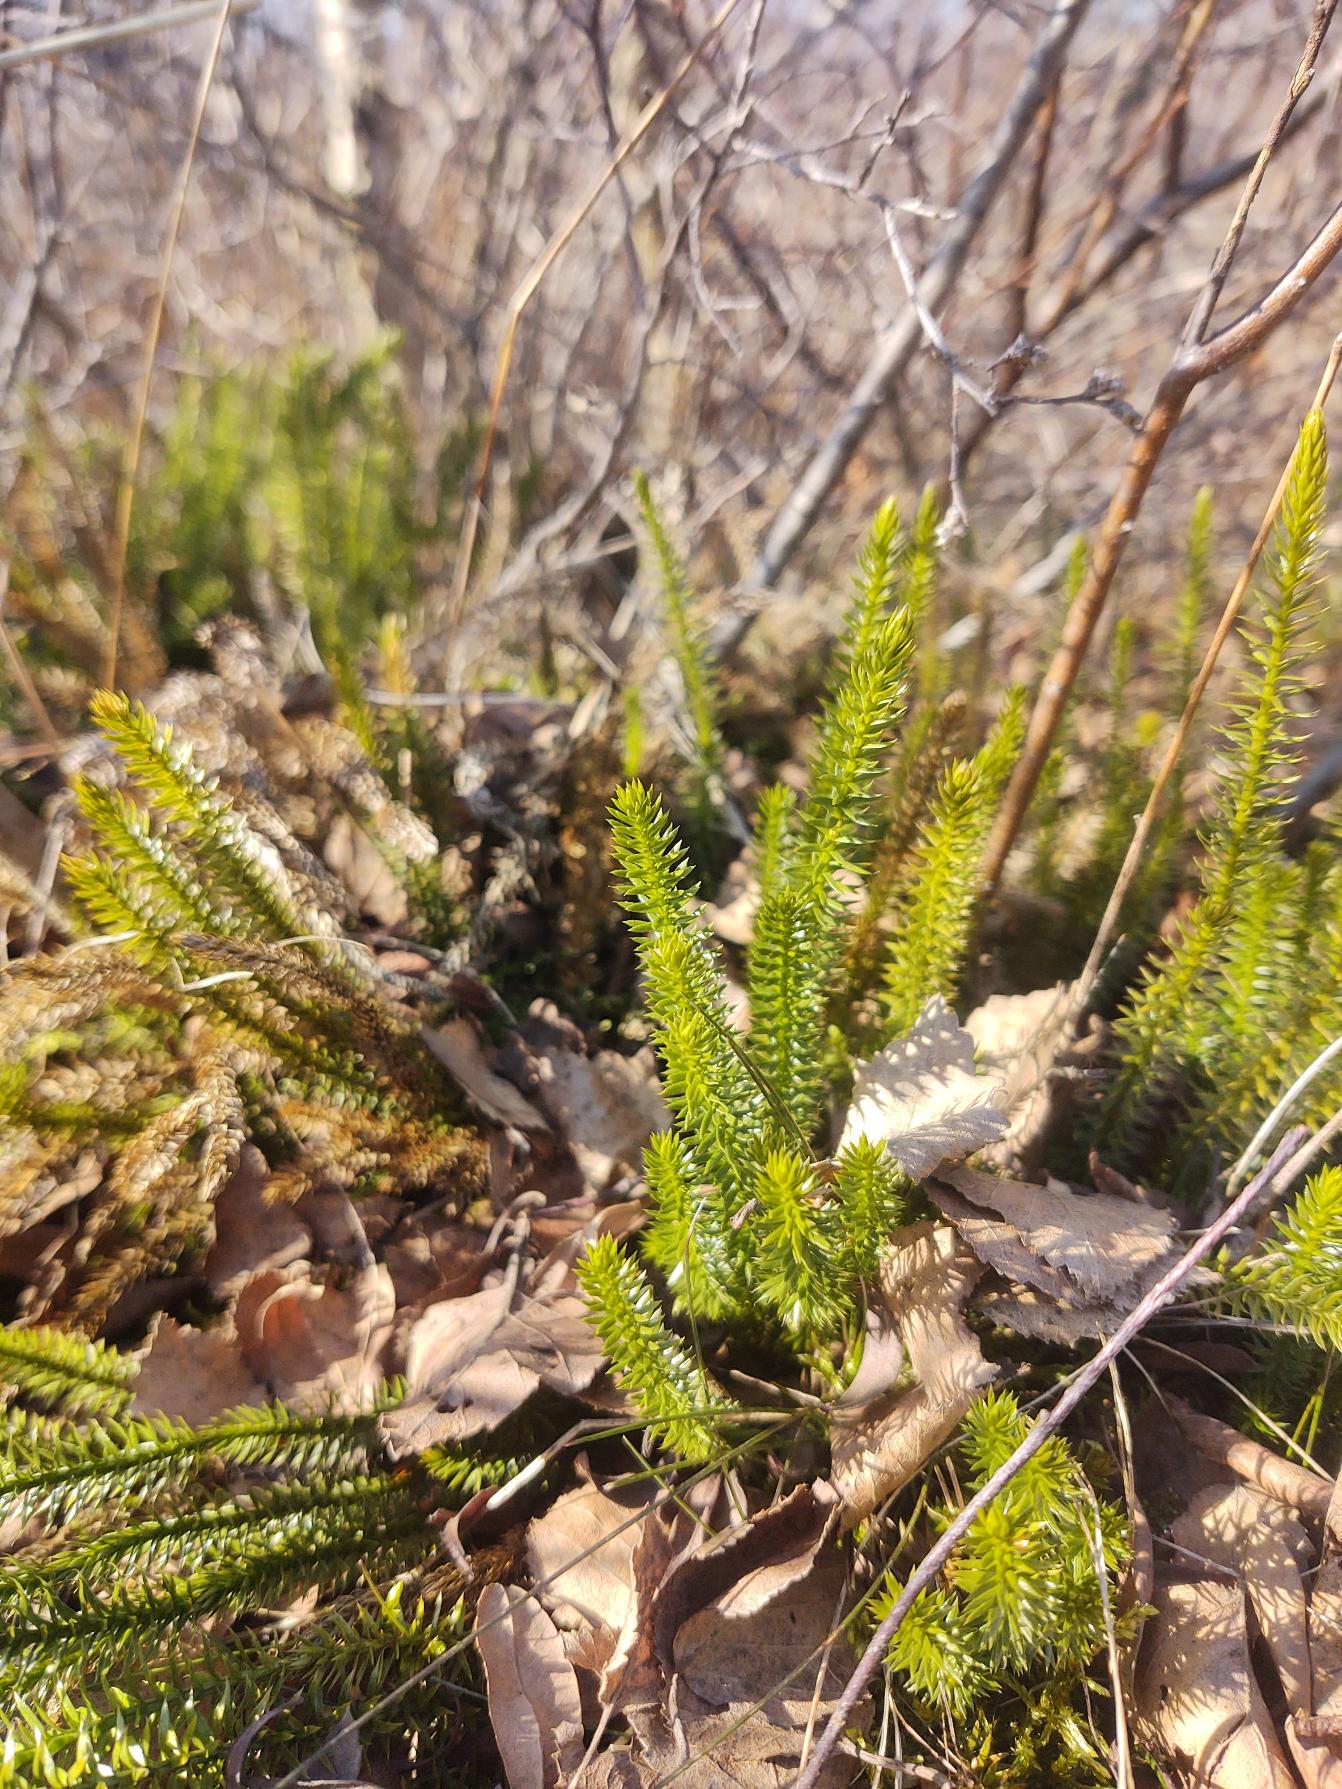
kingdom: Plantae
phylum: Tracheophyta
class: Lycopodiopsida
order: Lycopodiales
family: Lycopodiaceae
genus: Spinulum
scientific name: Spinulum annotinum
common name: Femradet ulvefod
